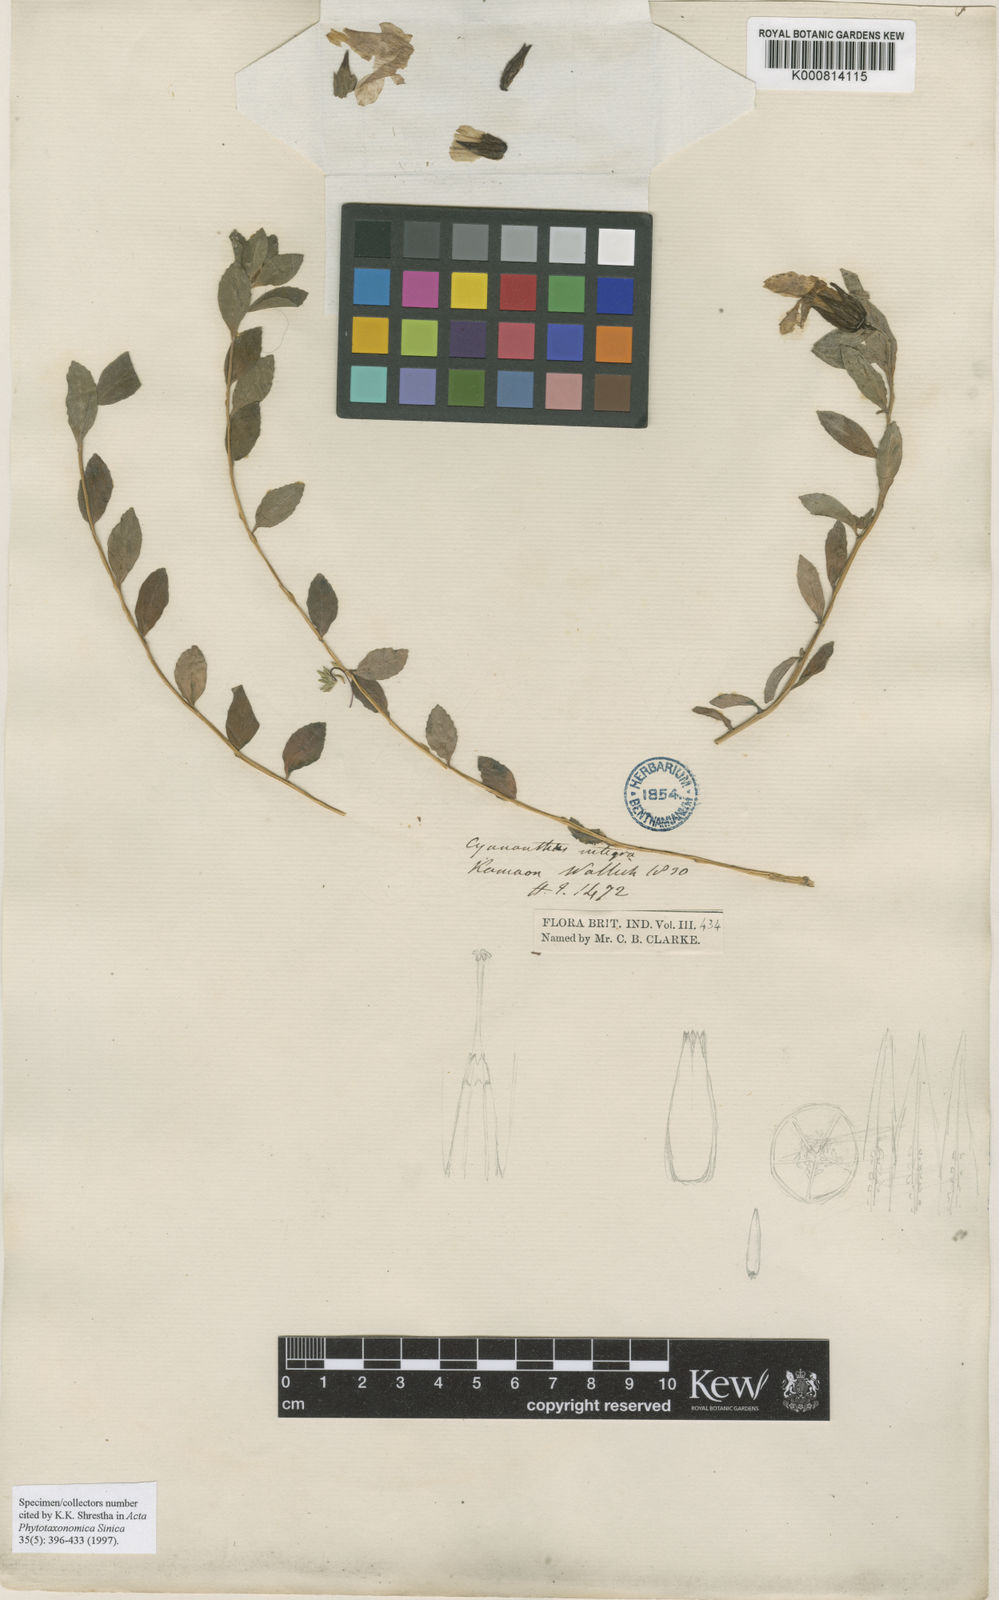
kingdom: Plantae
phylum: Tracheophyta
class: Magnoliopsida
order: Asterales
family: Campanulaceae
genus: Cyananthus
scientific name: Cyananthus integer
